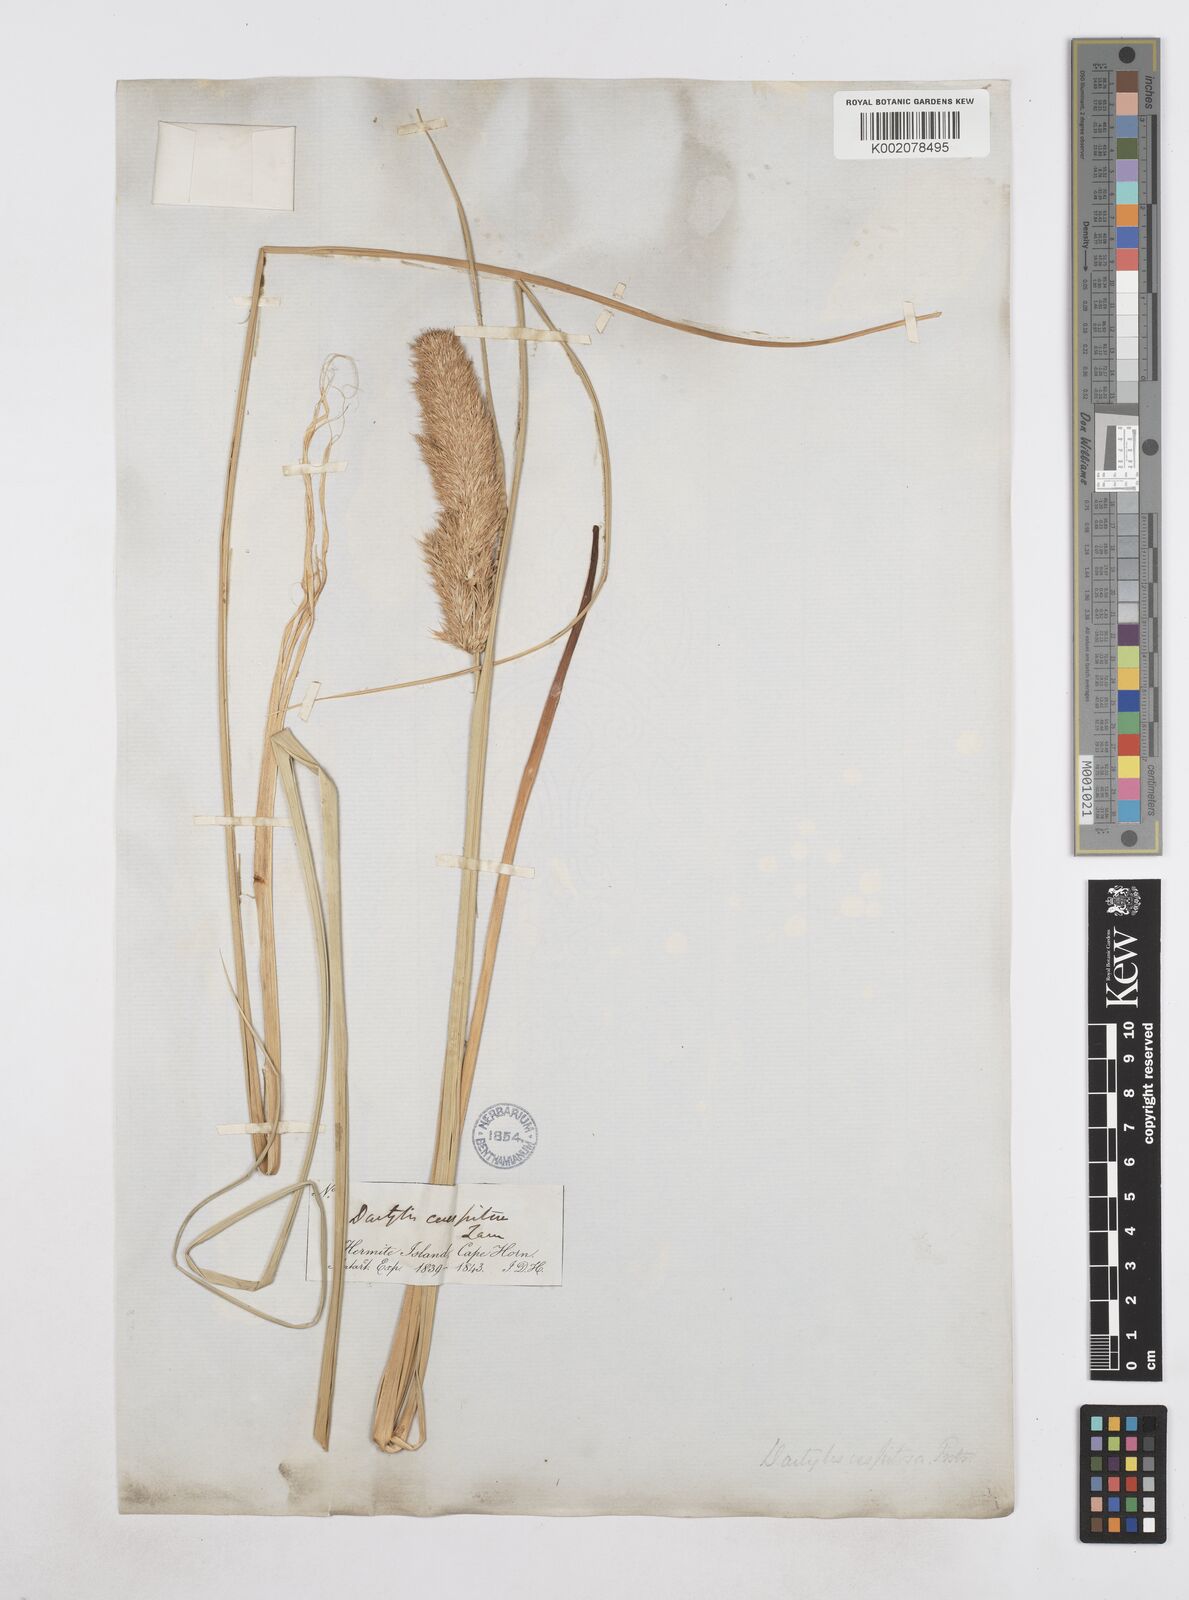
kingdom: Plantae
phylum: Tracheophyta
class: Liliopsida
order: Poales
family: Poaceae
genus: Poa
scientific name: Poa flabellata
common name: Tussac-grass
